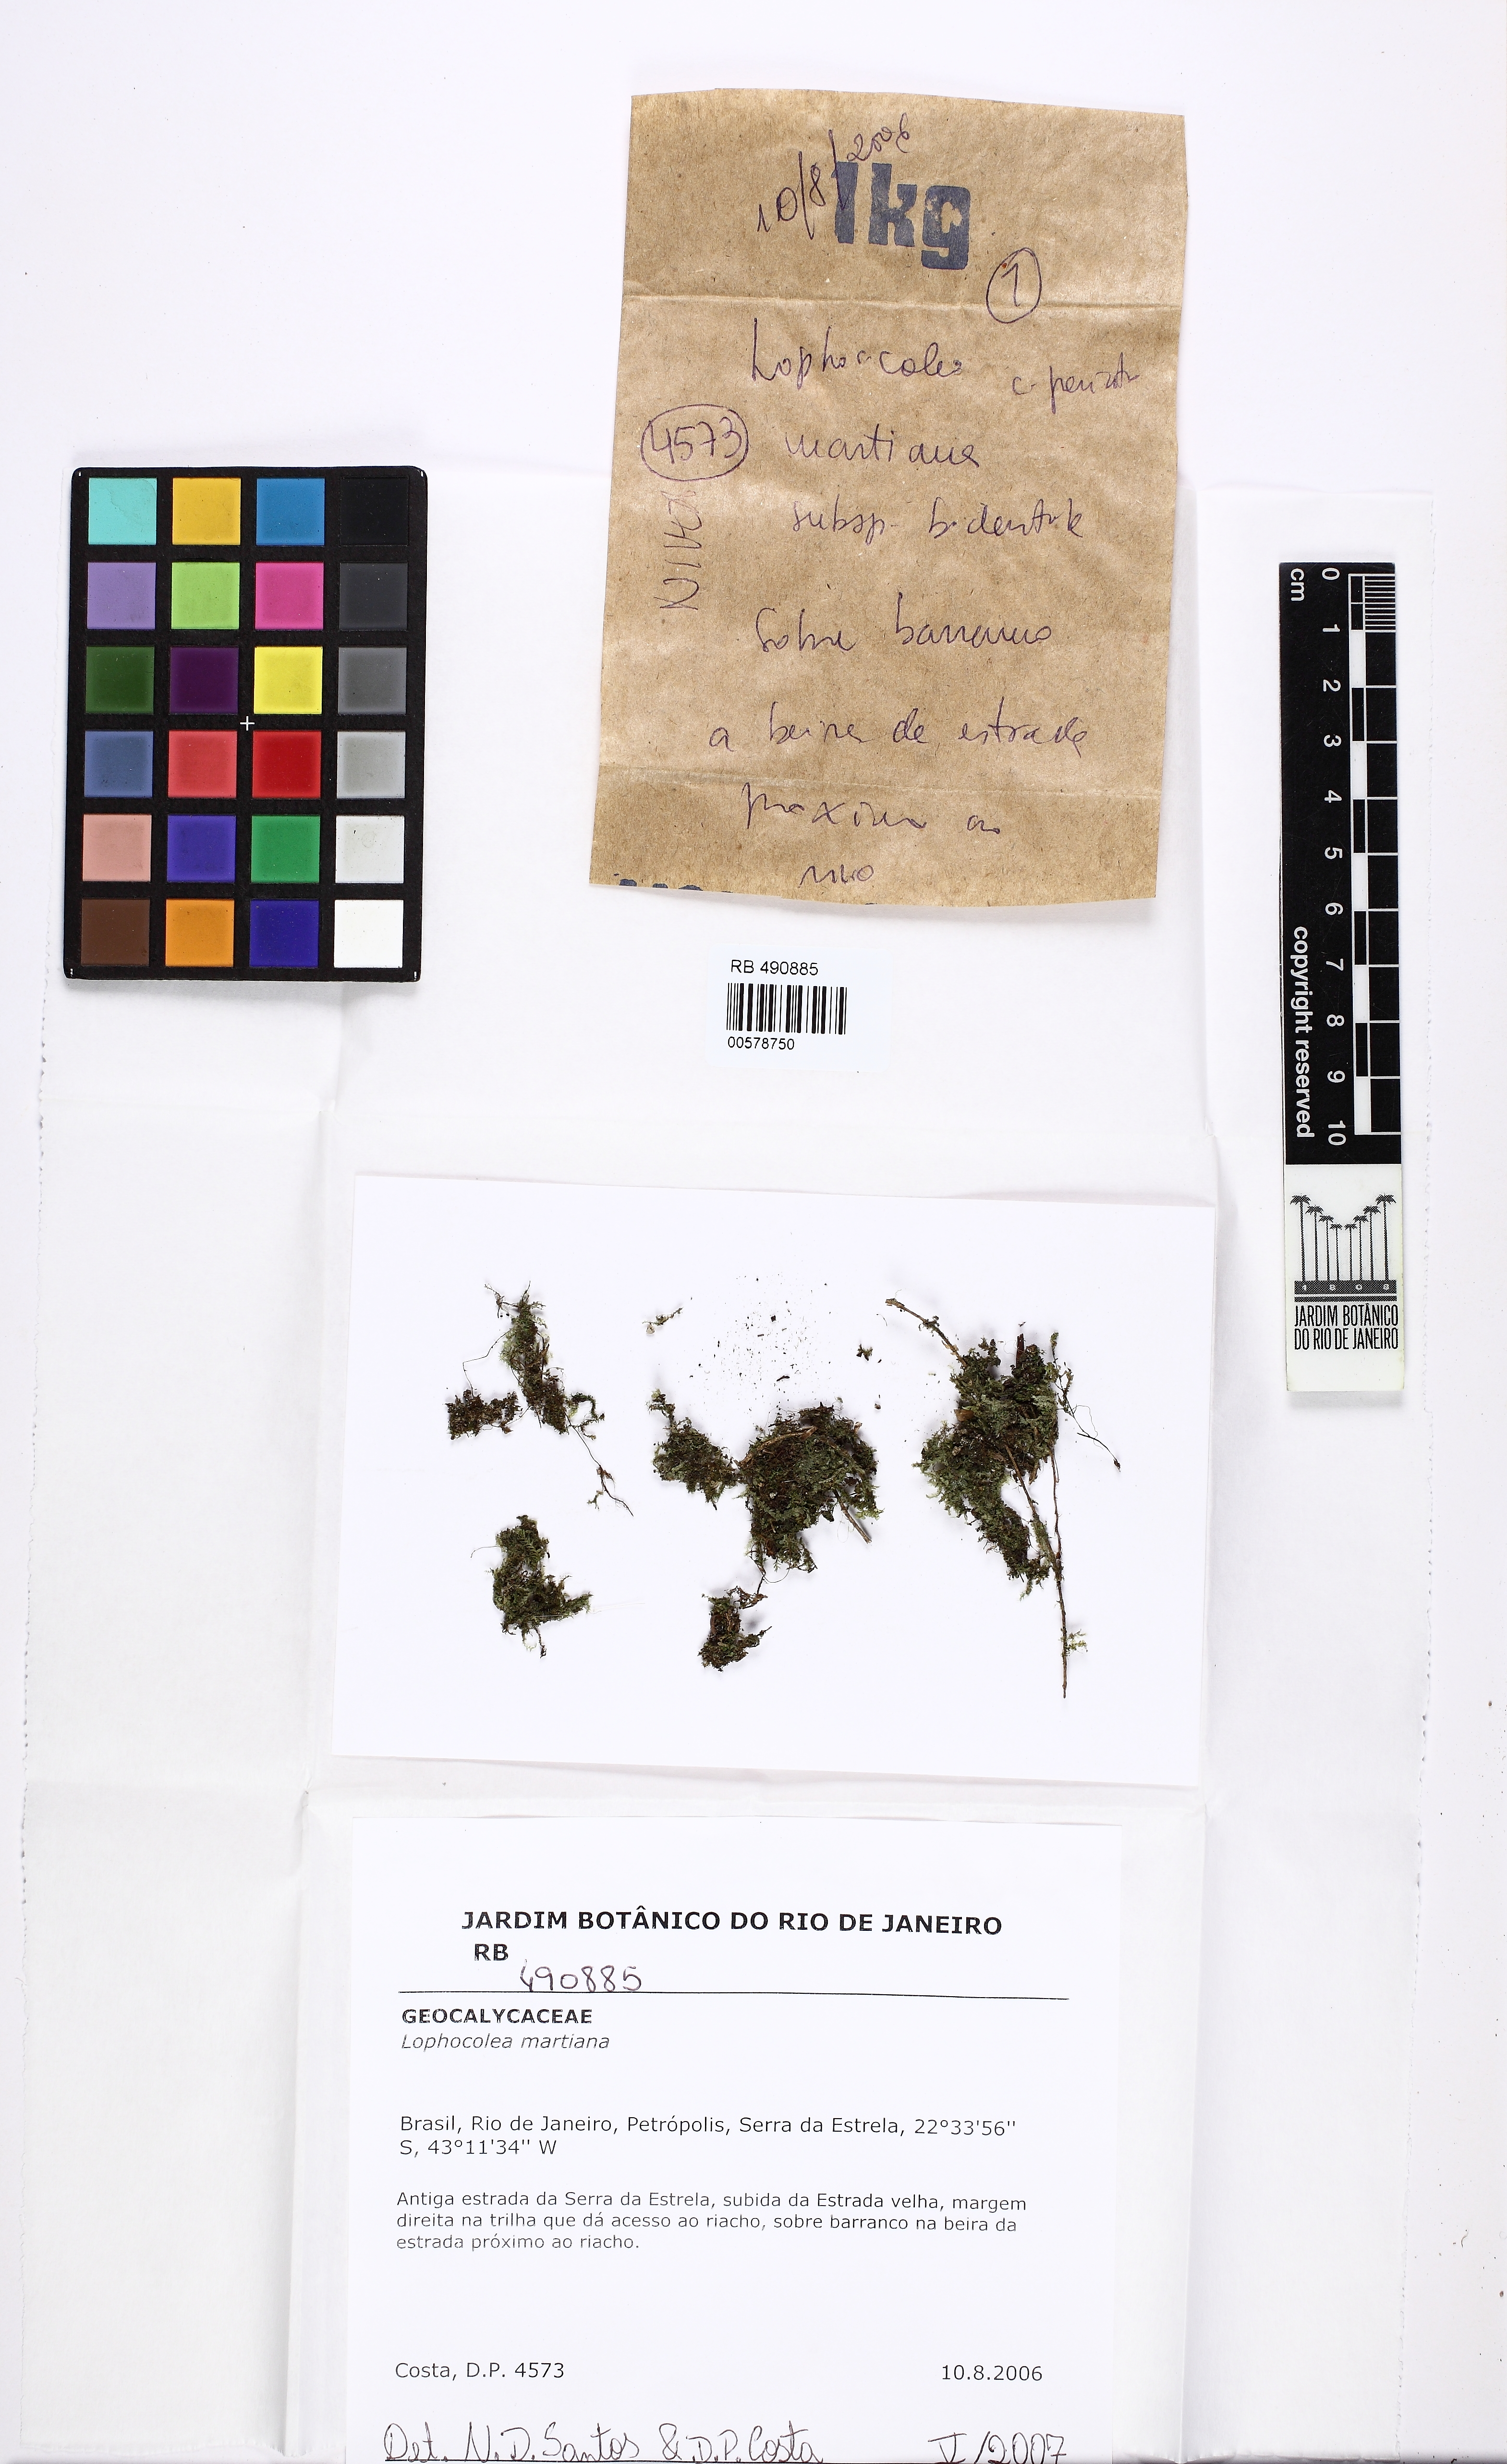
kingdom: Plantae
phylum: Marchantiophyta
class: Jungermanniopsida
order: Jungermanniales
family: Lophocoleaceae
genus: Cryptolophocolea
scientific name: Cryptolophocolea martiana
